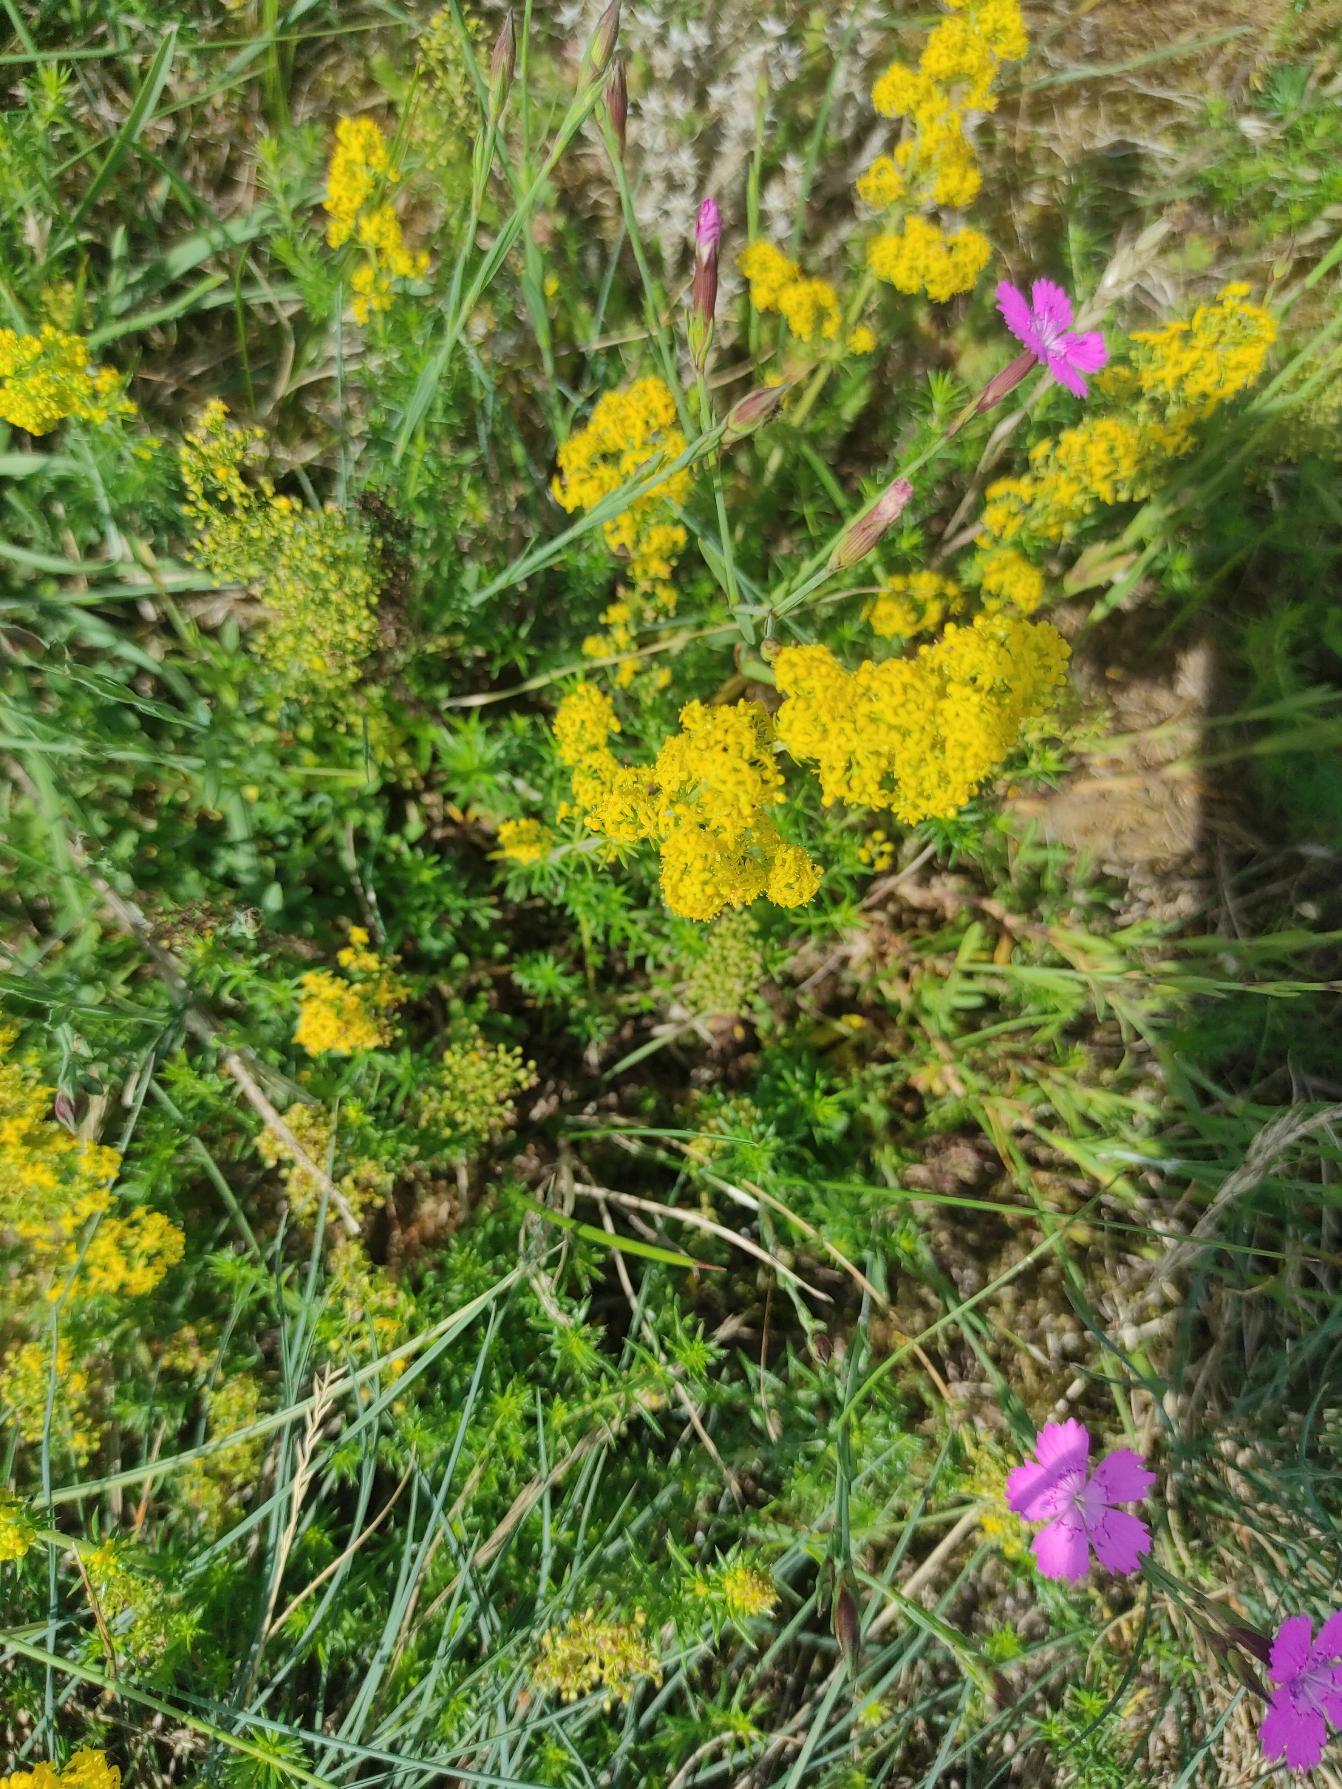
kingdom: Plantae
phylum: Tracheophyta
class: Magnoliopsida
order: Gentianales
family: Rubiaceae
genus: Galium
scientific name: Galium verum
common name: Gul snerre
